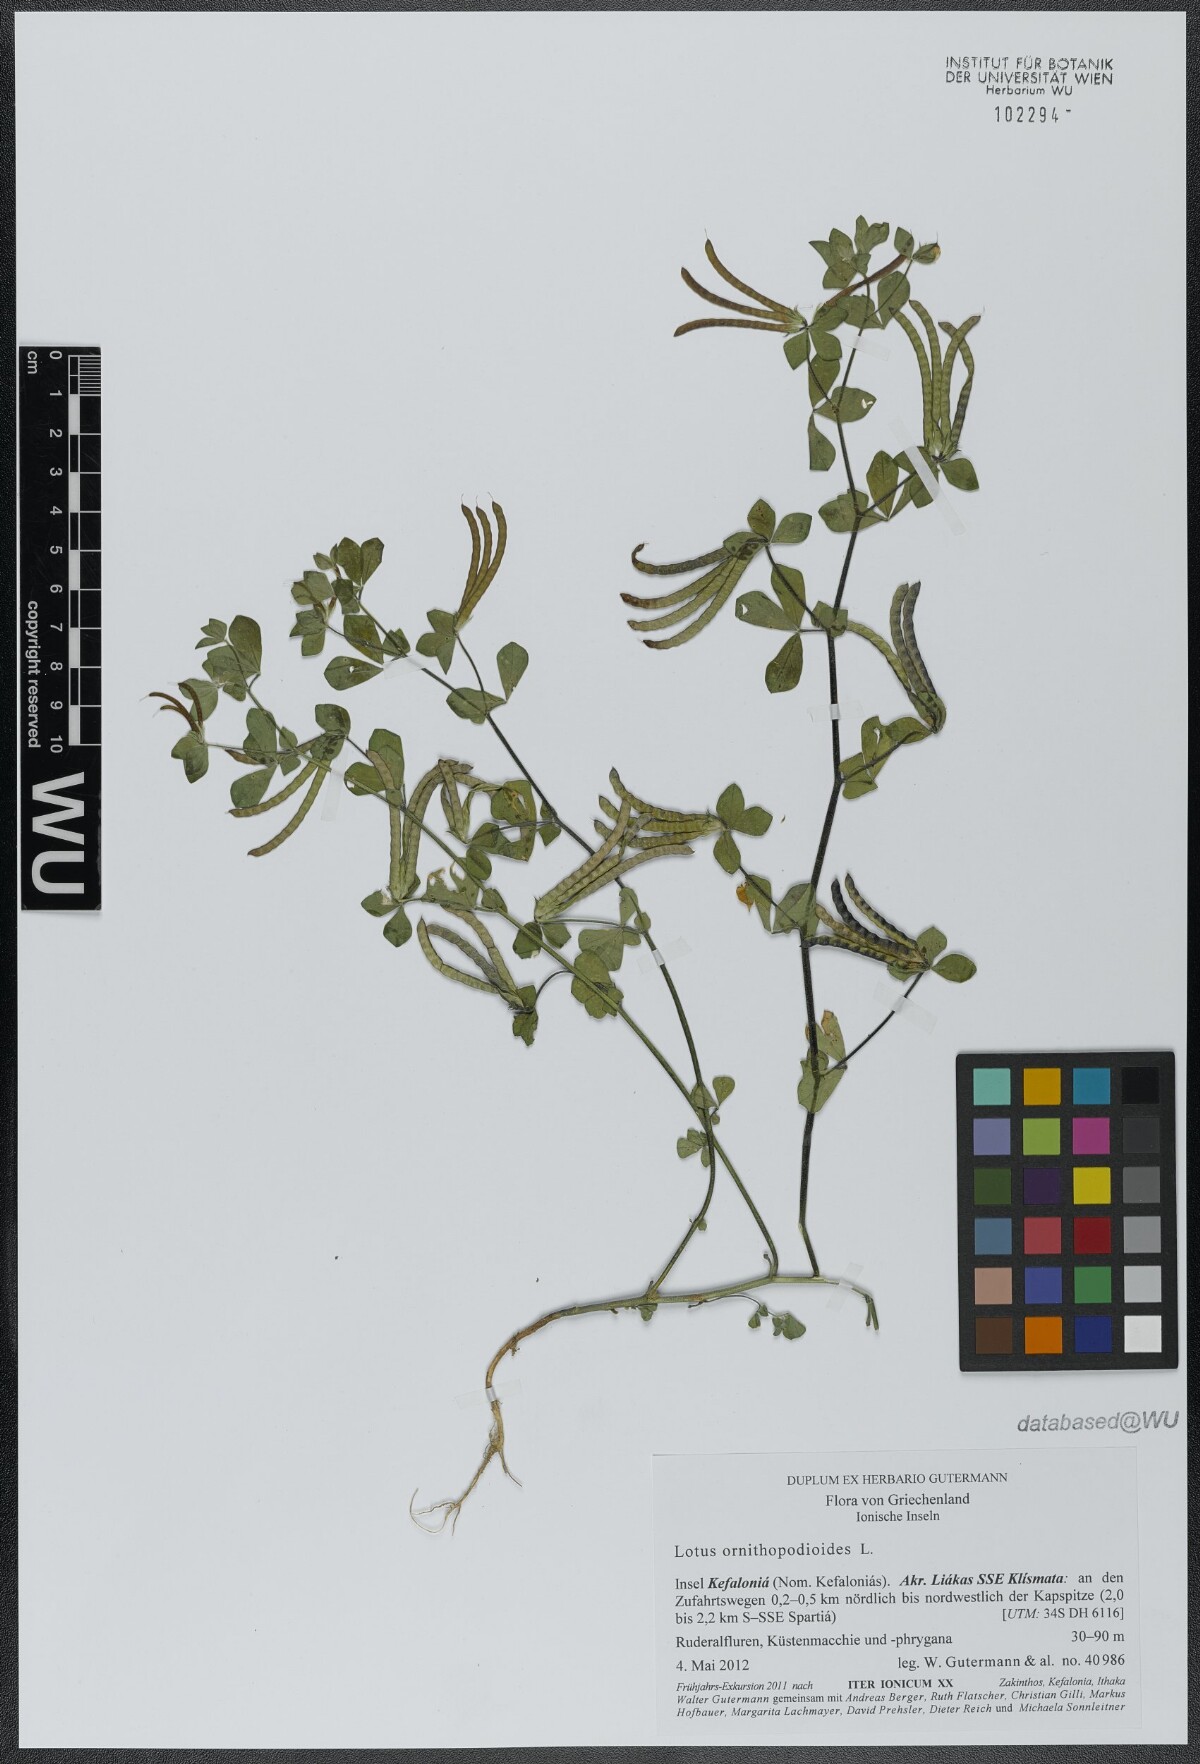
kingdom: Plantae
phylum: Tracheophyta
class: Magnoliopsida
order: Fabales
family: Fabaceae
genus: Lotus
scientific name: Lotus ornithopodioides
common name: Southern bird's-foot trefoil
